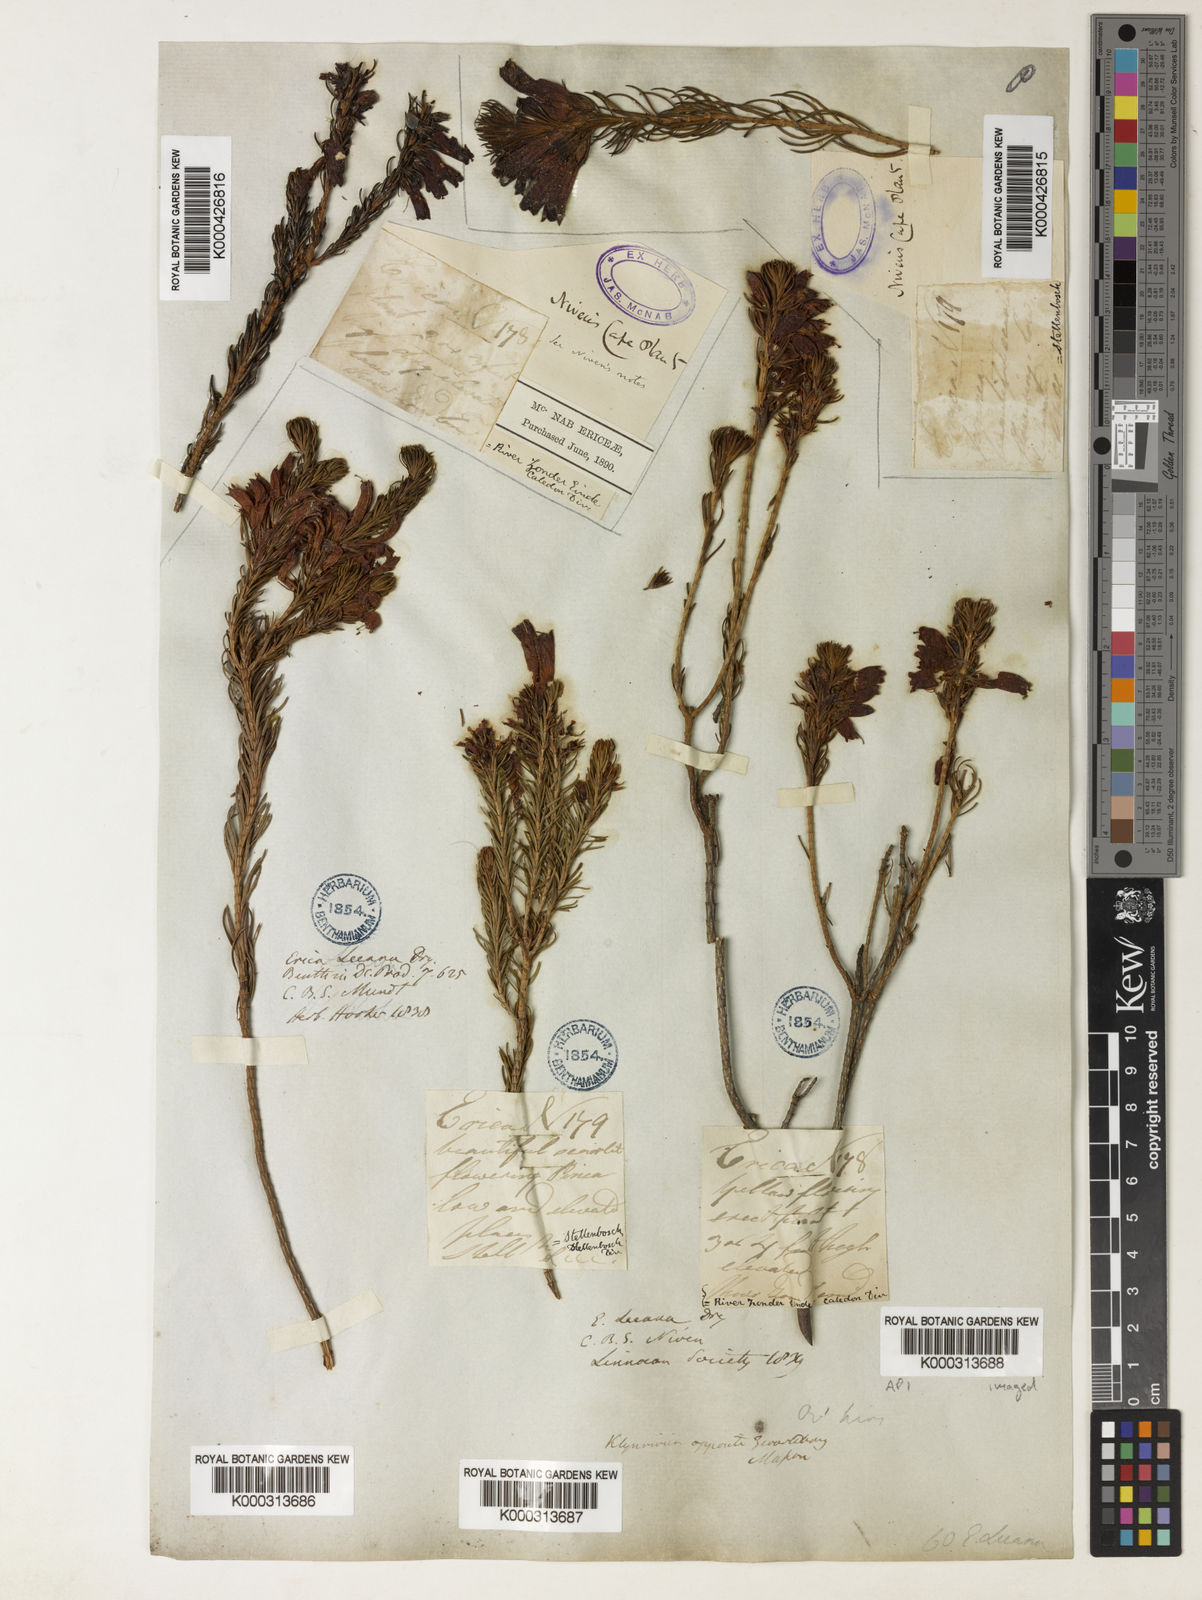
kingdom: Plantae
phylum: Tracheophyta
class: Magnoliopsida
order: Ericales
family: Ericaceae
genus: Erica
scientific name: Erica viscaria
